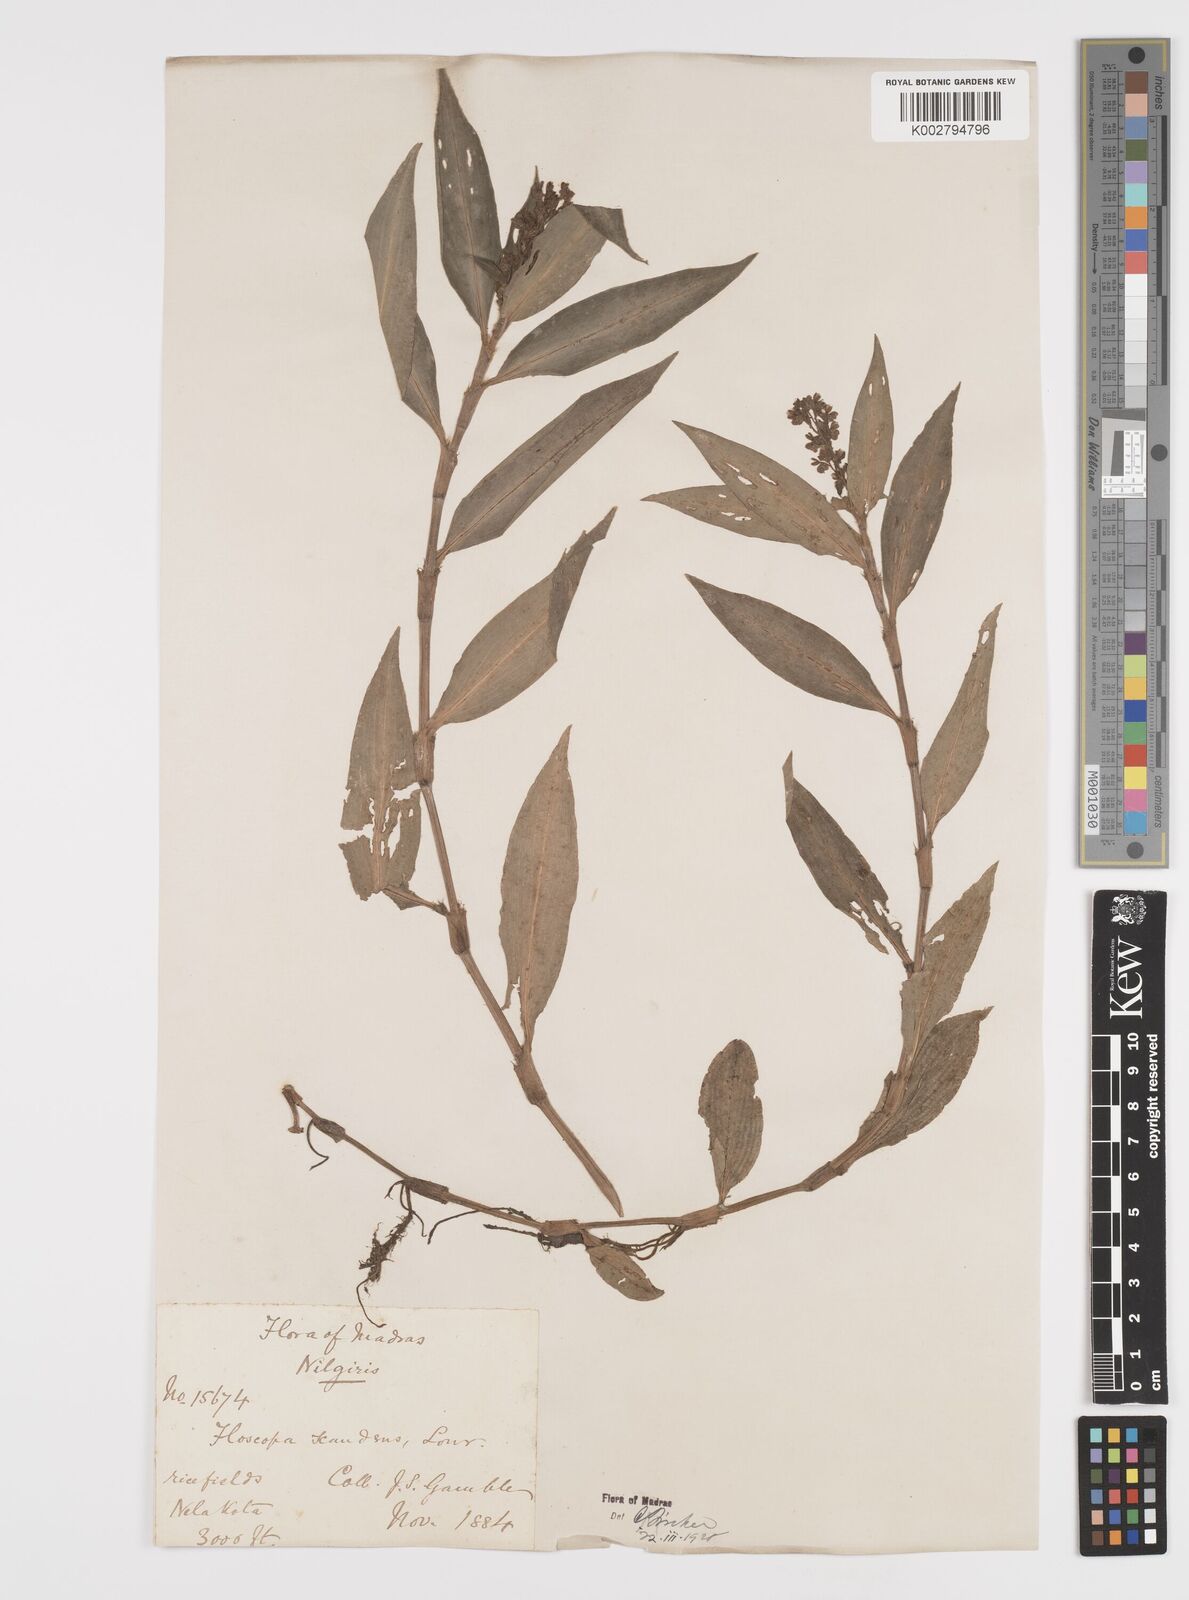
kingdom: Plantae
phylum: Tracheophyta
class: Liliopsida
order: Commelinales
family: Commelinaceae
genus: Floscopa
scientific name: Floscopa scandens
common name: Climbing flower cup
